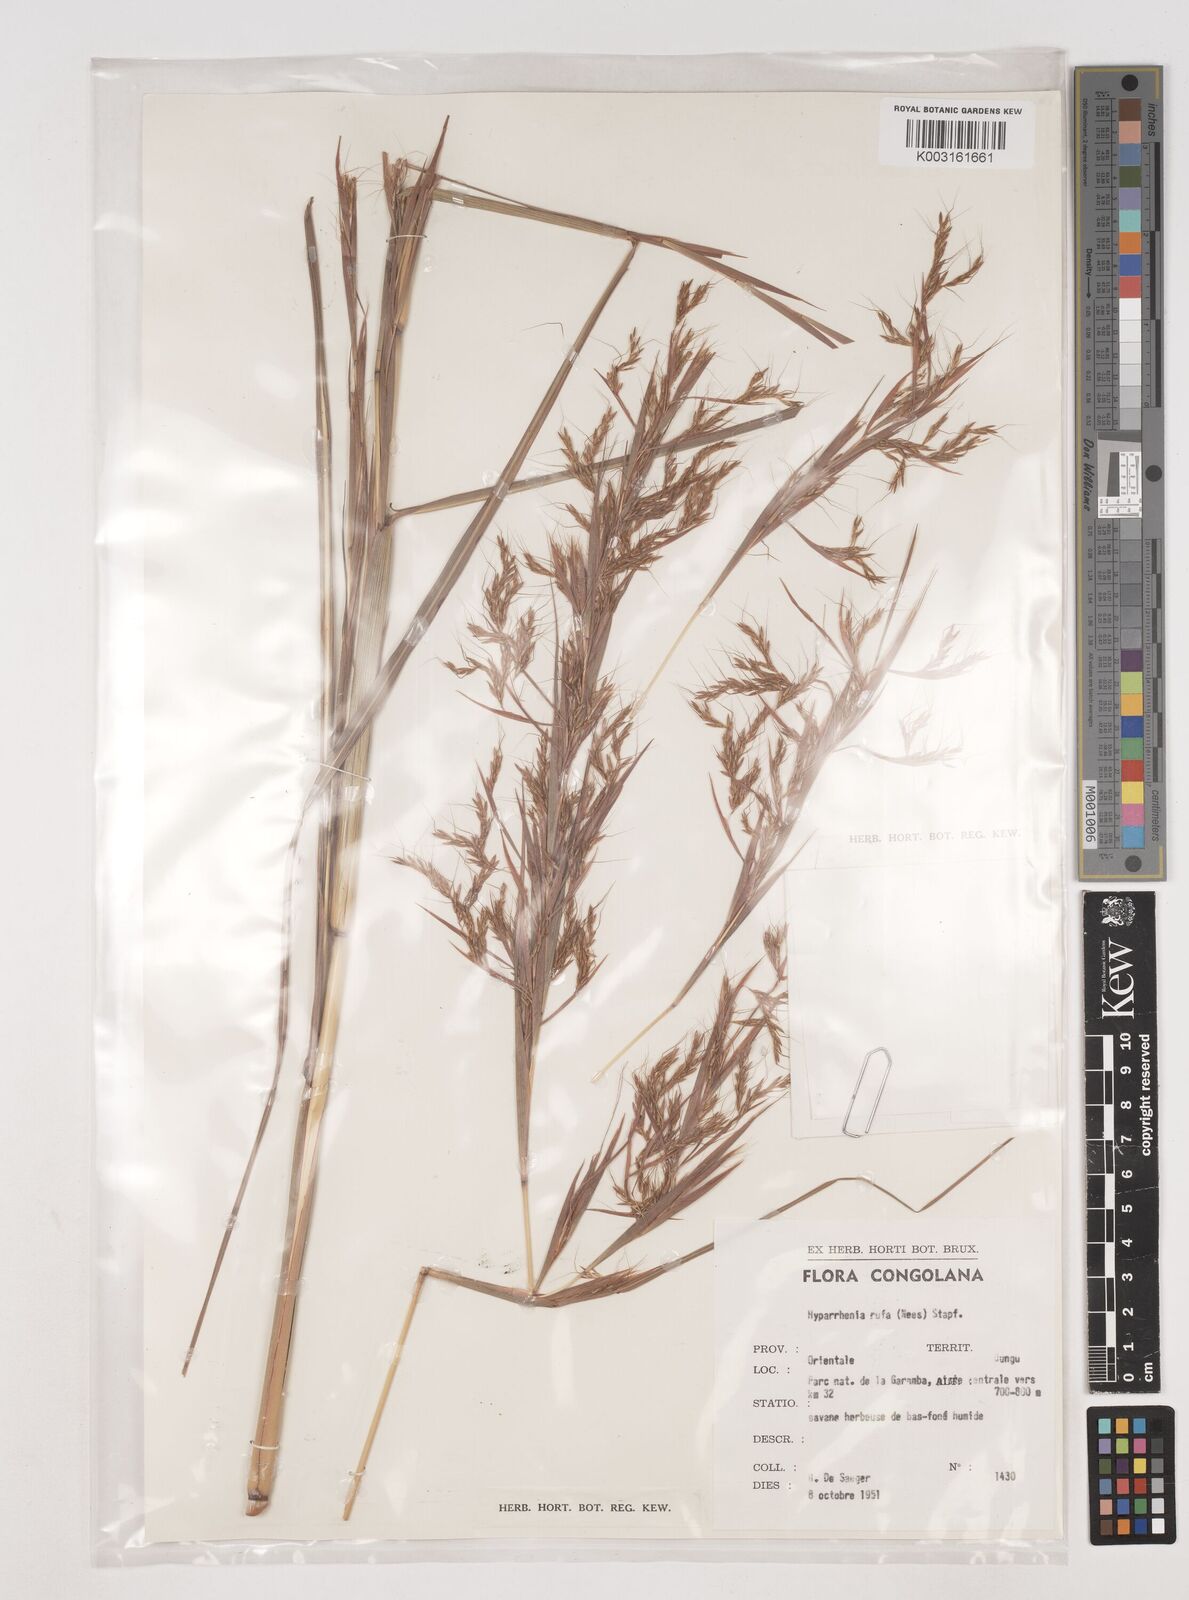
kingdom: Plantae
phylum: Tracheophyta
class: Liliopsida
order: Poales
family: Poaceae
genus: Hyparrhenia
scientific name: Hyparrhenia rufa
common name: Jaraguagrass
